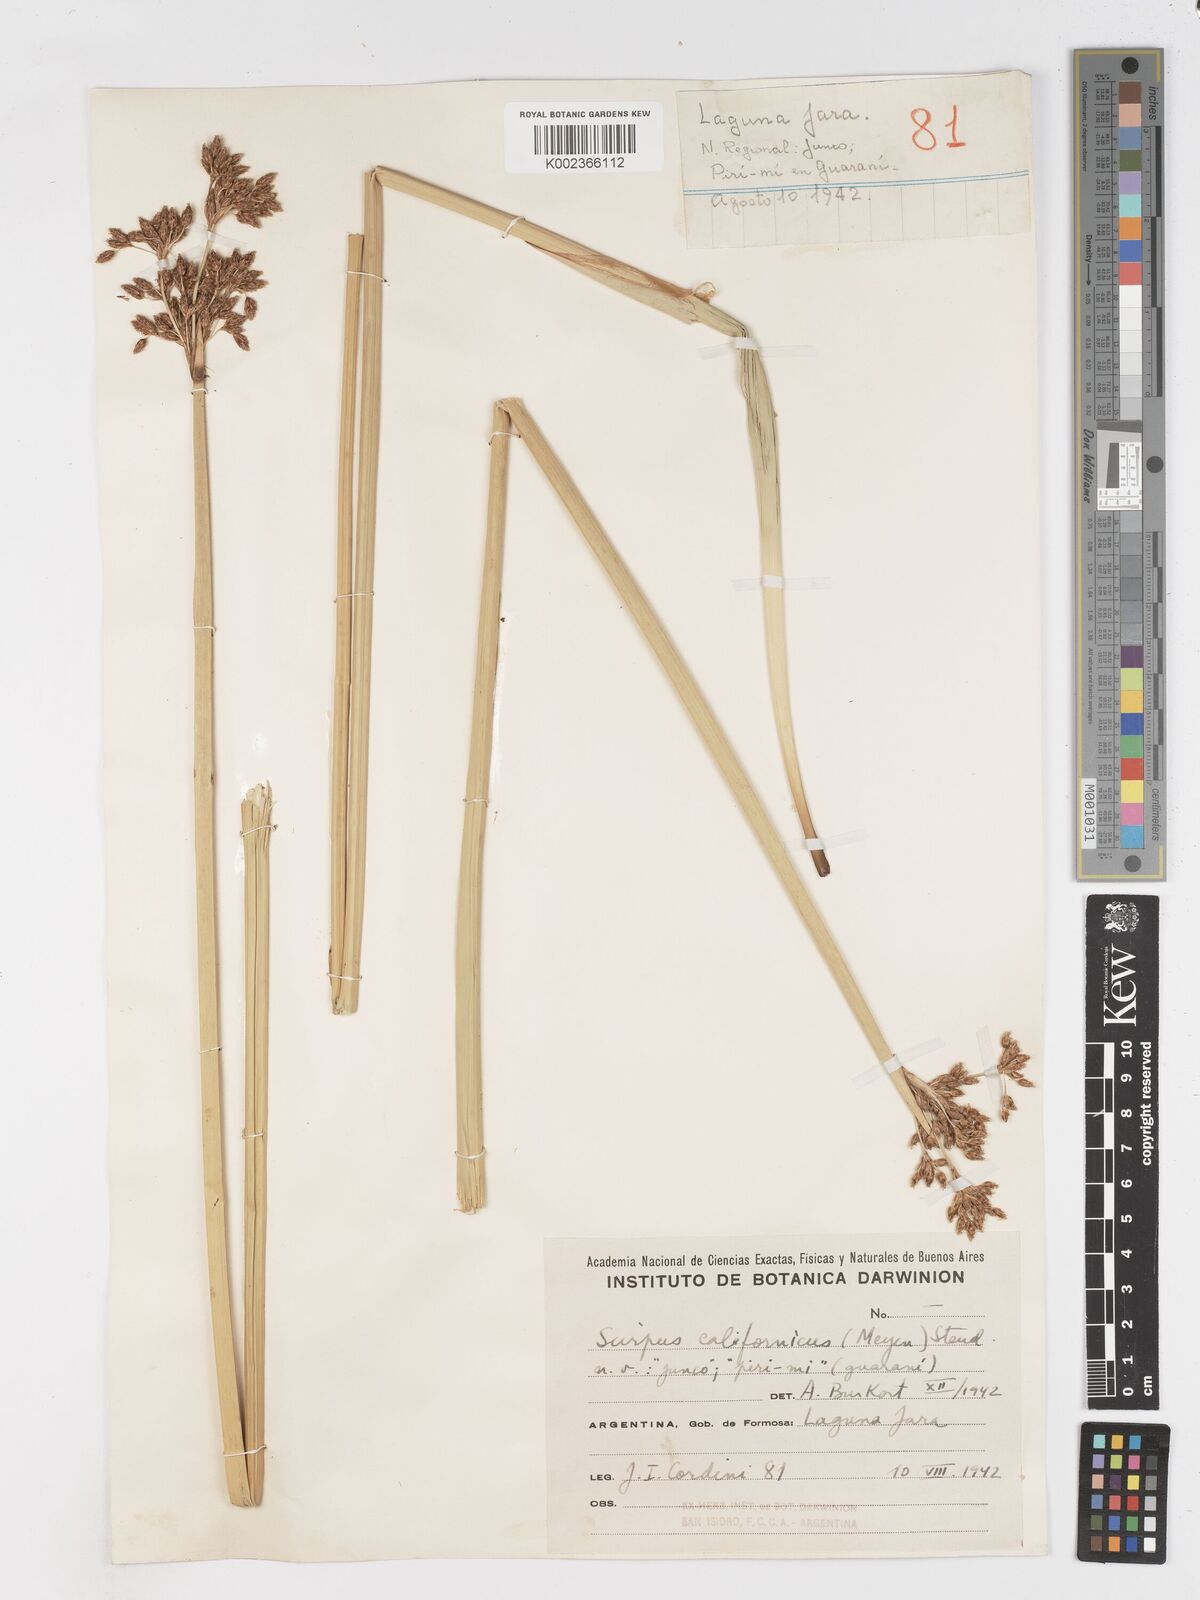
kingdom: Plantae
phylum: Tracheophyta
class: Liliopsida
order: Poales
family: Cyperaceae
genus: Schoenoplectus
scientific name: Schoenoplectus californicus
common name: California bulrush
